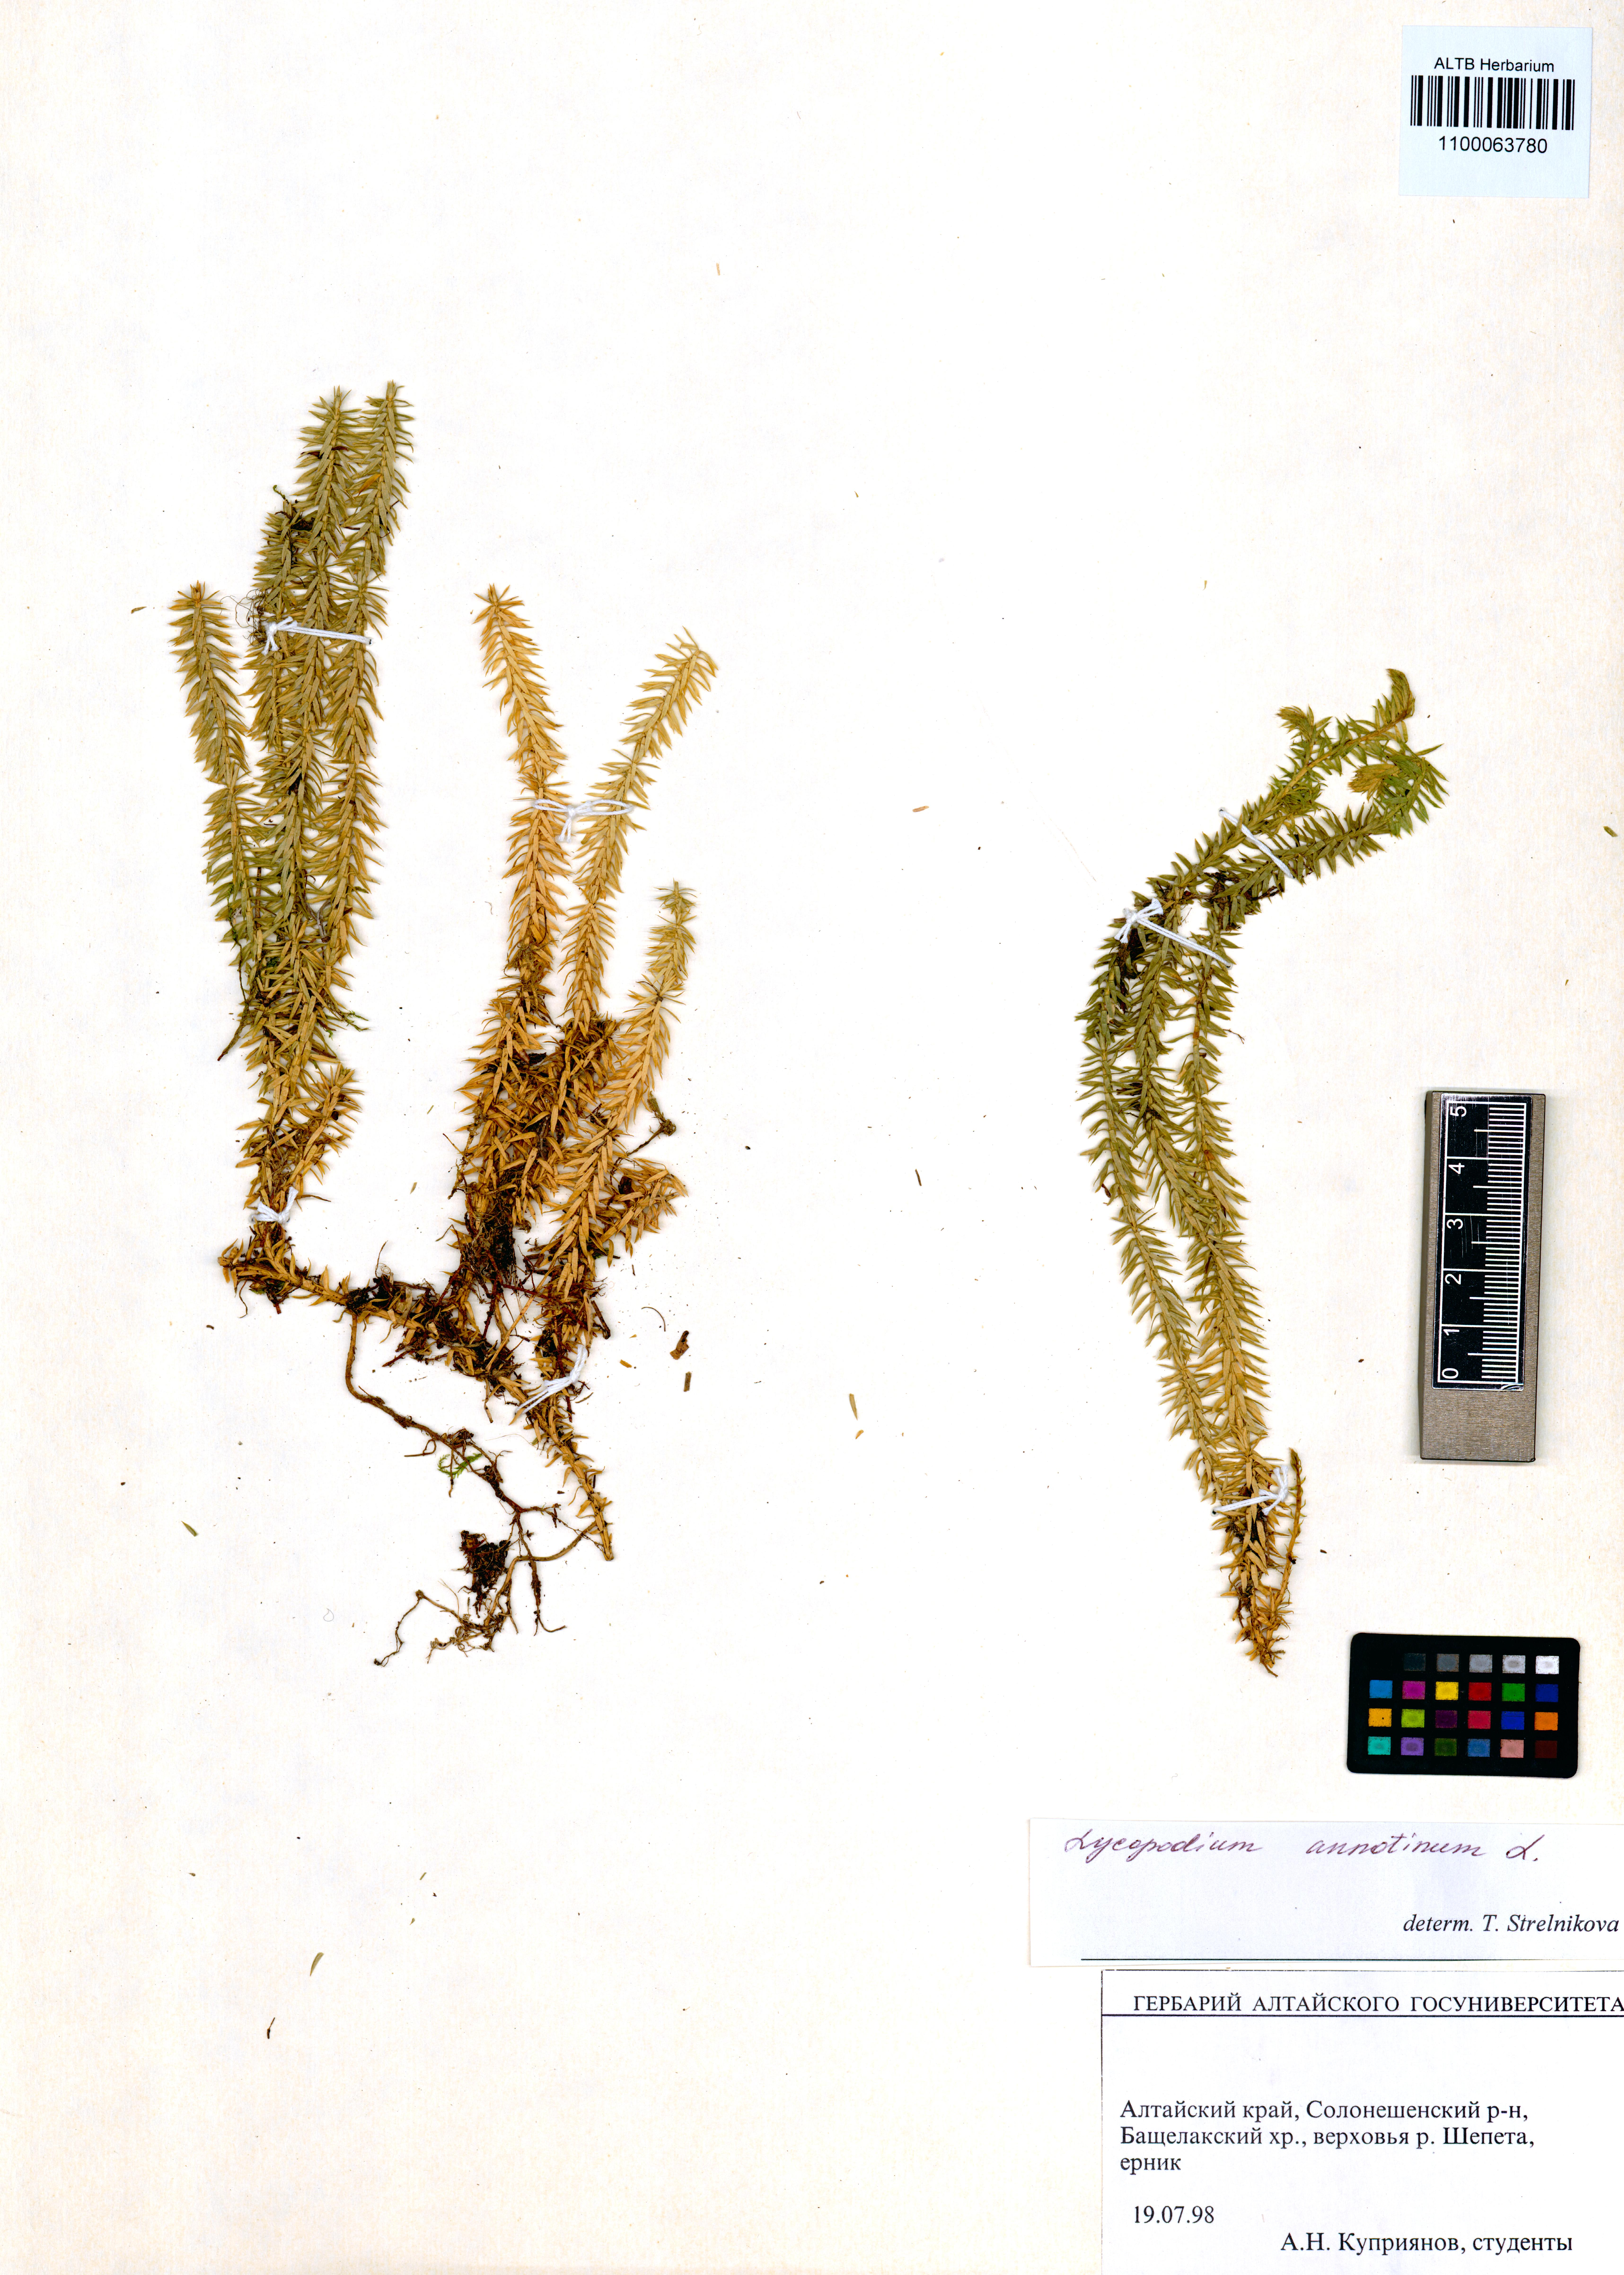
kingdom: Plantae
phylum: Tracheophyta
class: Lycopodiopsida
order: Lycopodiales
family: Lycopodiaceae
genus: Spinulum
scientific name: Spinulum annotinum
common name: Interrupted club-moss
